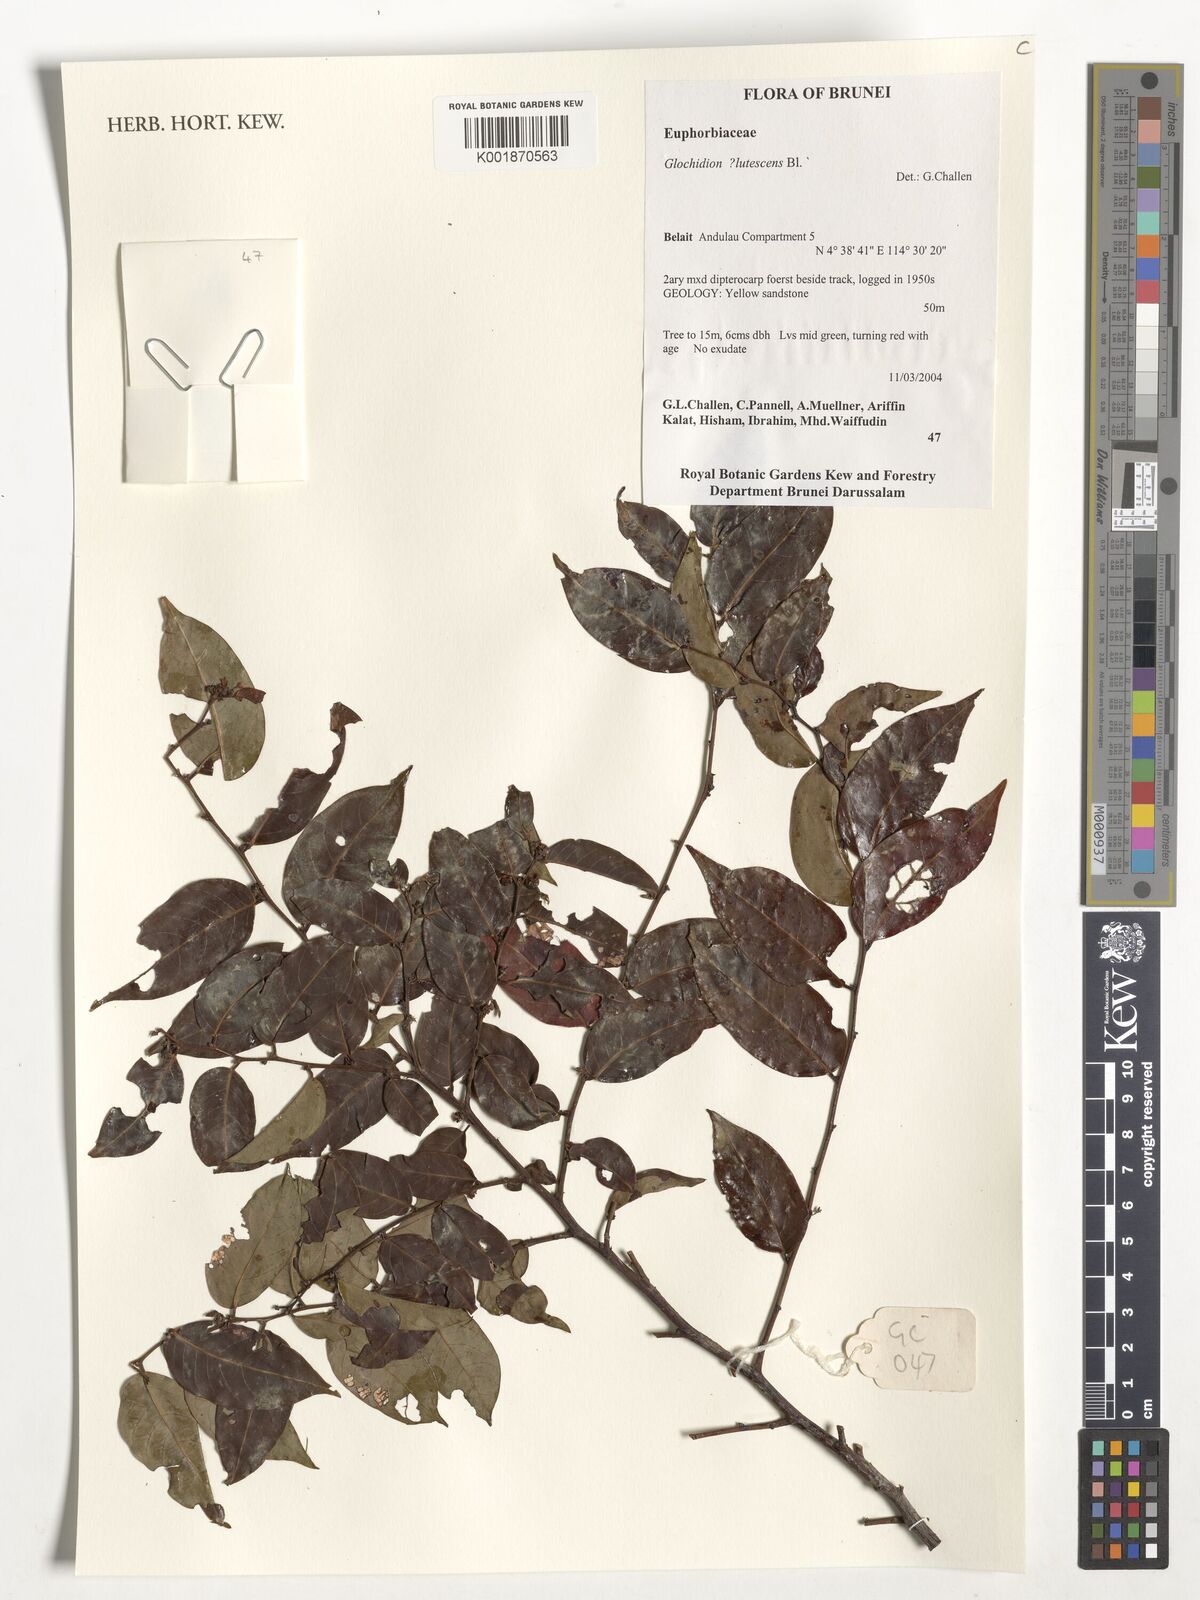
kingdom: Plantae
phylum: Tracheophyta
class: Magnoliopsida
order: Malpighiales
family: Phyllanthaceae
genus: Glochidion
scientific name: Glochidion lutescens
